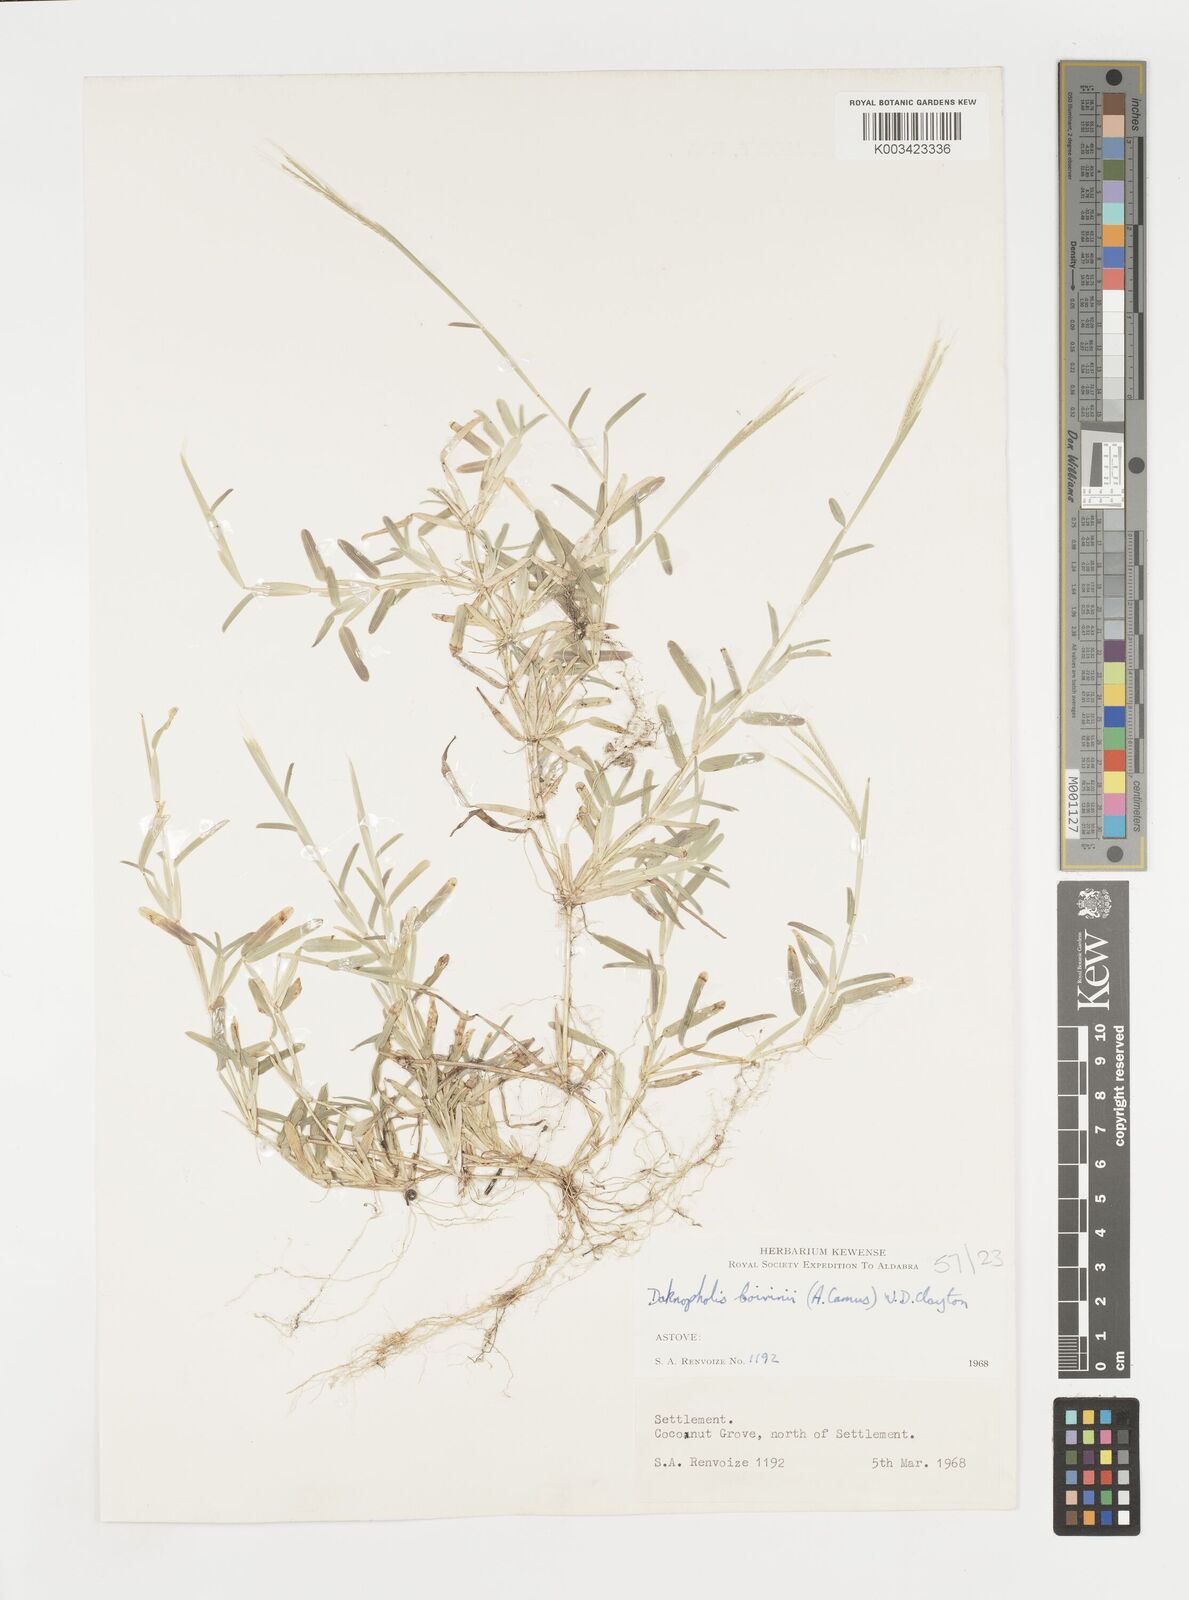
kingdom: Plantae
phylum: Tracheophyta
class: Liliopsida
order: Poales
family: Poaceae
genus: Daknopholis
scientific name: Daknopholis boivinii
